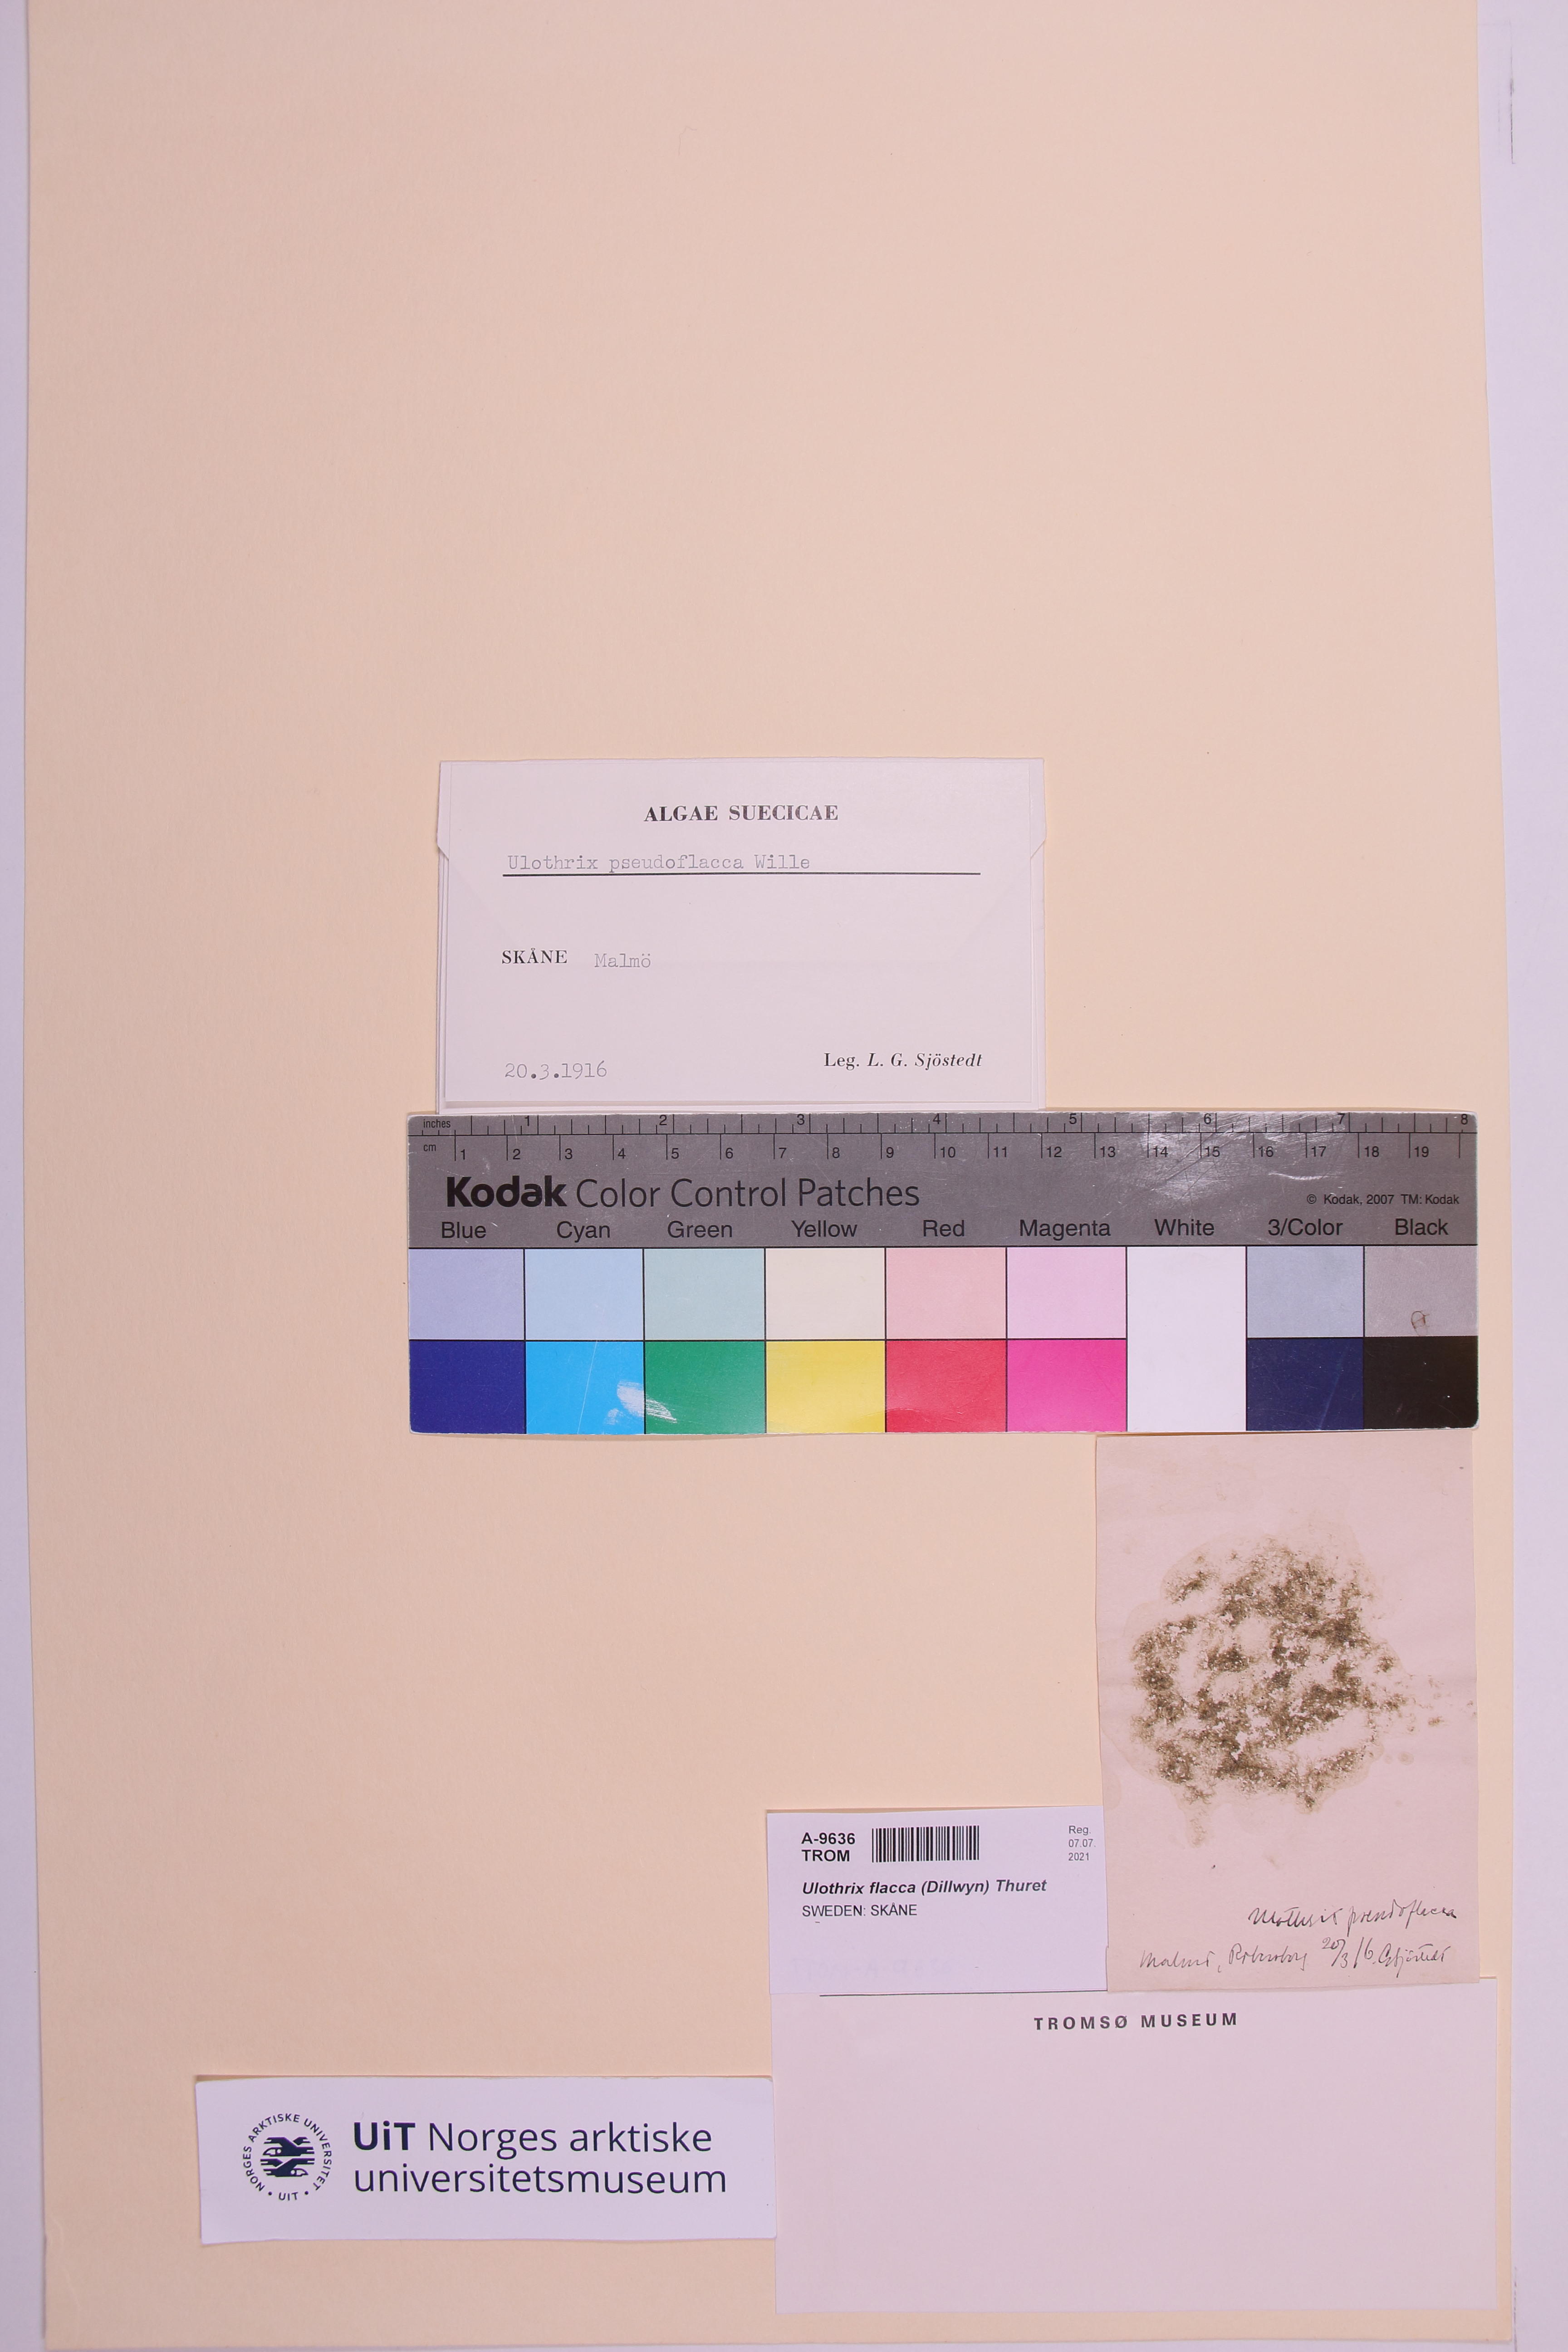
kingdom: Plantae
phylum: Chlorophyta
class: Ulvophyceae
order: Ulotrichales
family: Ulotrichaceae
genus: Ulothrix
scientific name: Ulothrix flacca
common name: Woolly hair
